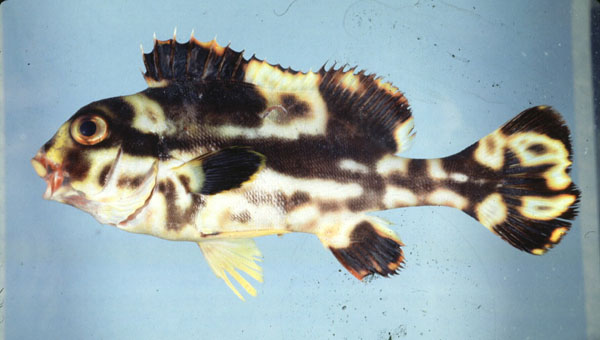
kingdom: Animalia
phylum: Chordata
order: Perciformes
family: Haemulidae
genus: Plectorhinchus
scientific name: Plectorhinchus vittatus
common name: Oriental sweetlips
